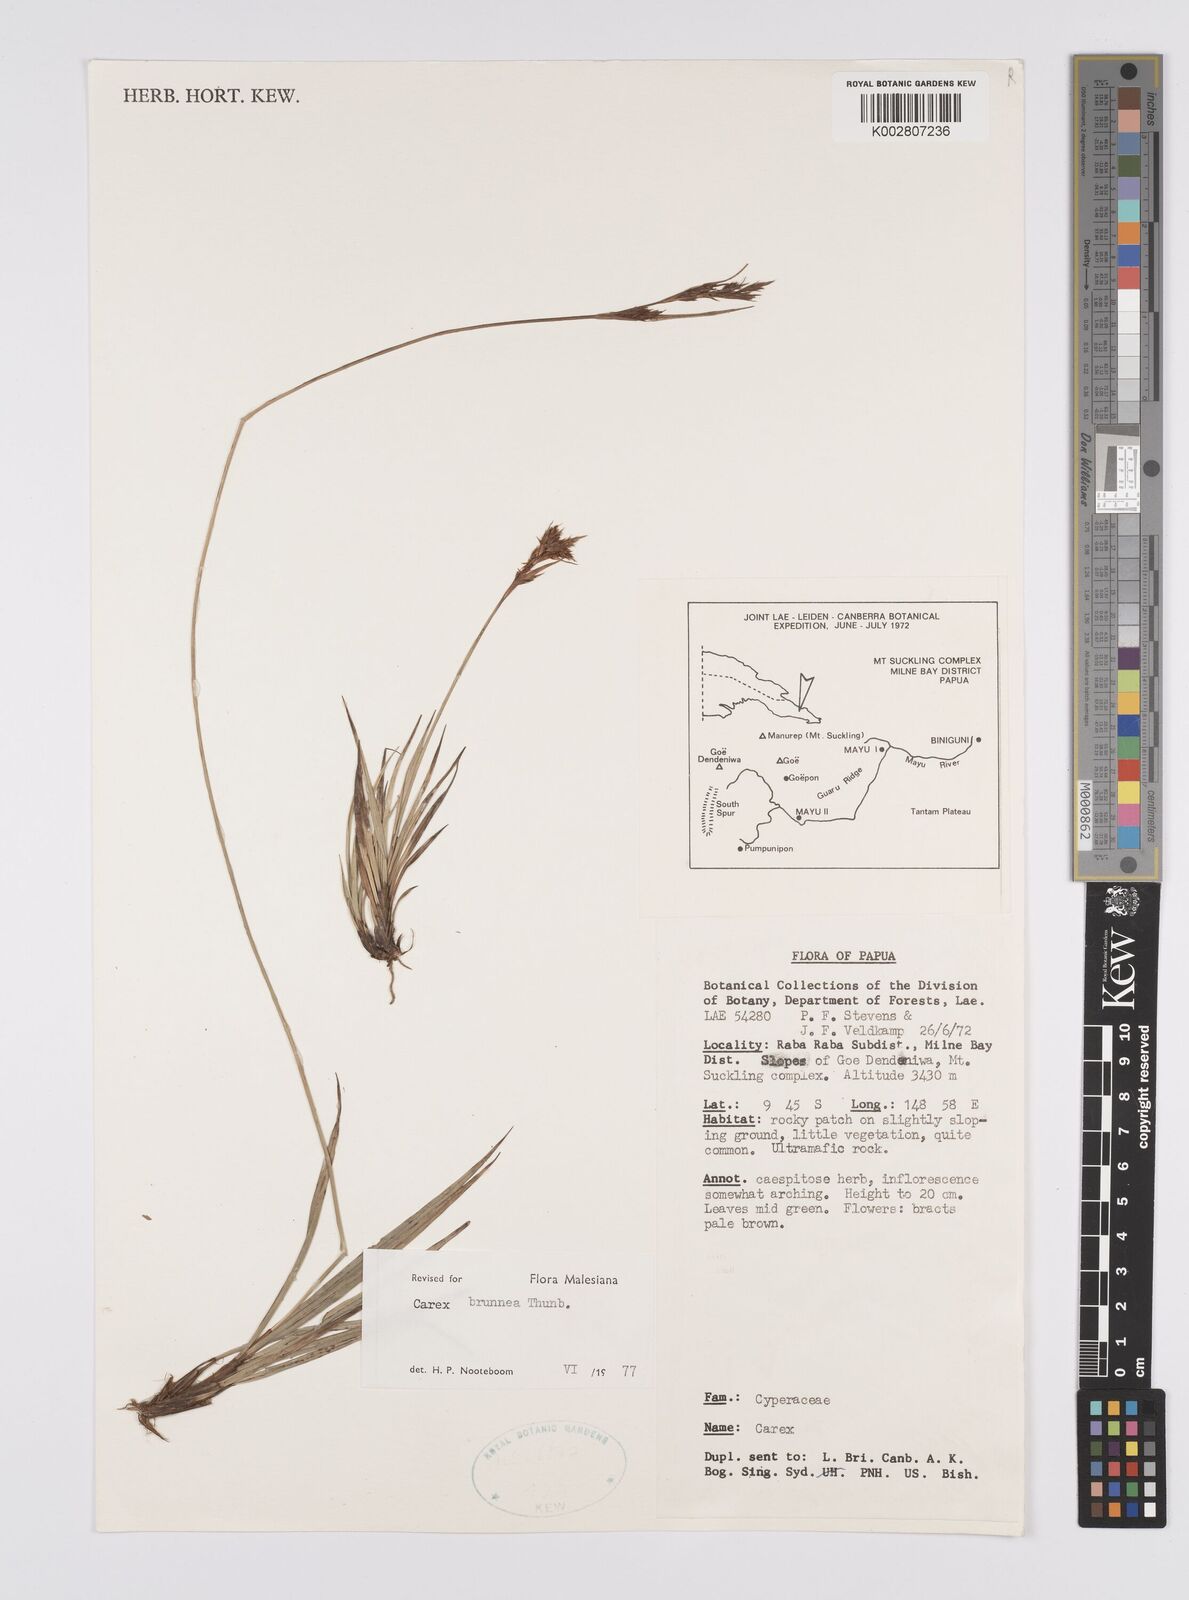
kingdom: Plantae
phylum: Tracheophyta
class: Liliopsida
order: Poales
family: Cyperaceae
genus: Carex
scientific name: Carex brunnea
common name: Greater brown sedge
